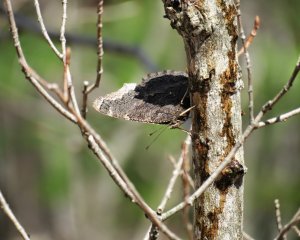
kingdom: Animalia
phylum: Arthropoda
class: Insecta
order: Lepidoptera
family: Nymphalidae
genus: Nymphalis
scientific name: Nymphalis antiopa
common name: Mourning Cloak
